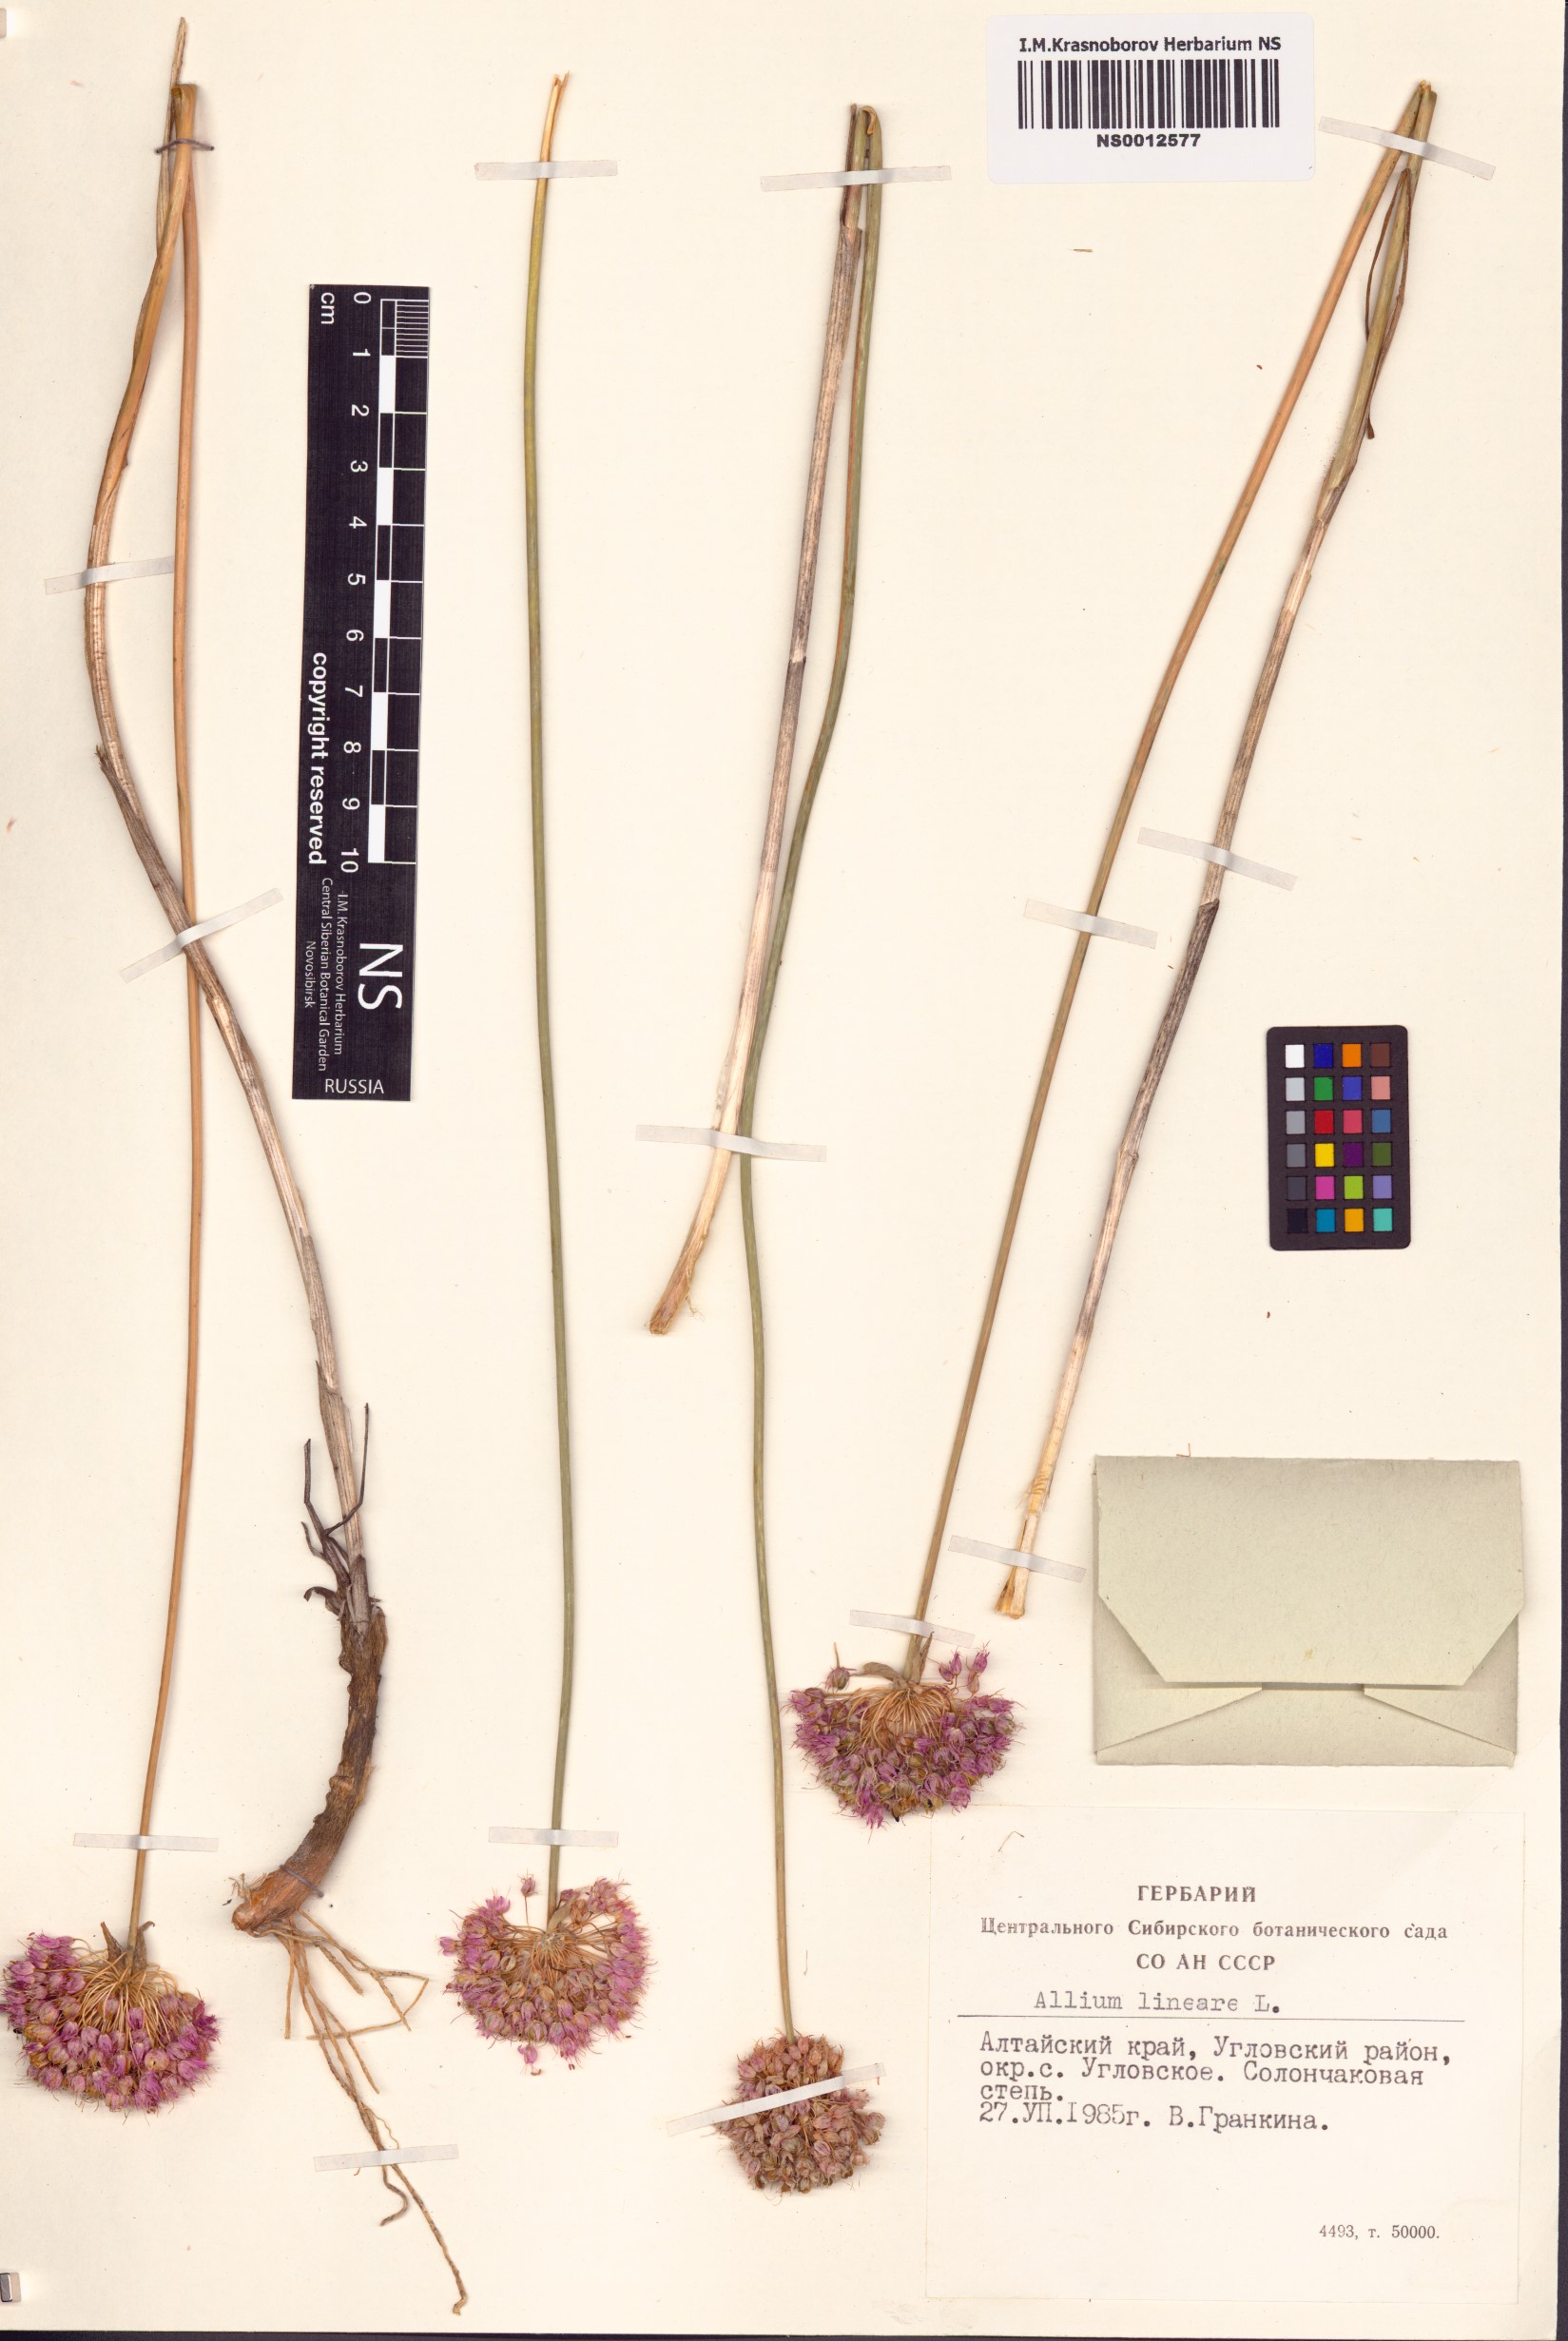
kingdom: Plantae
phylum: Tracheophyta
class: Liliopsida
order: Asparagales
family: Amaryllidaceae
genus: Allium
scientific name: Allium lineare
